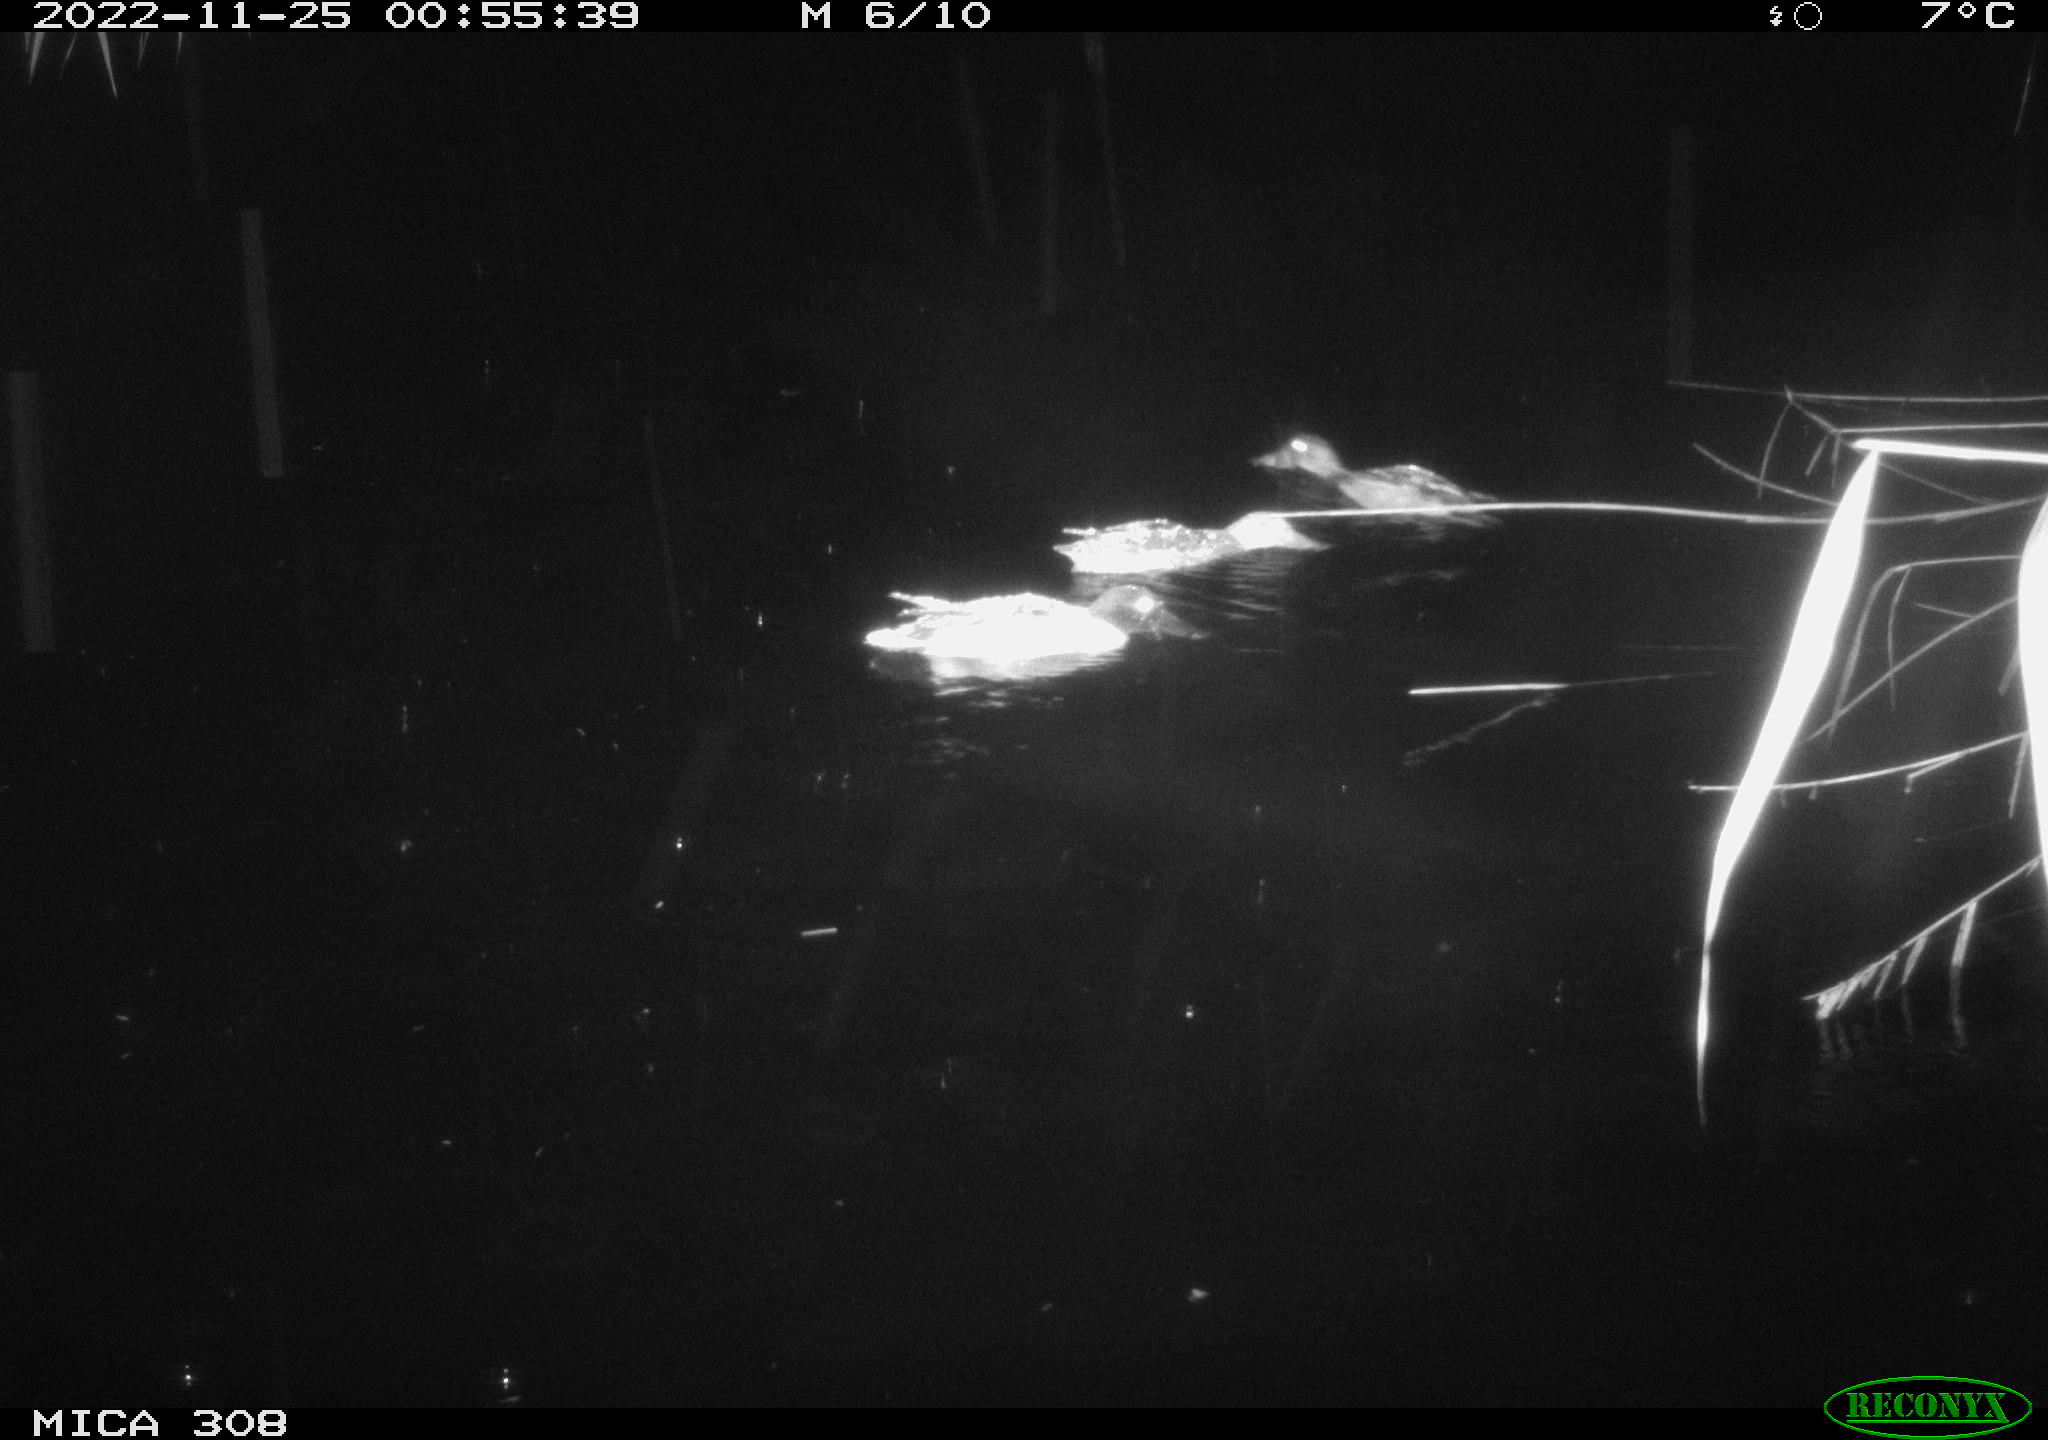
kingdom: Animalia
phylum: Chordata
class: Aves
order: Anseriformes
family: Anatidae
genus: Anas
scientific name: Anas
